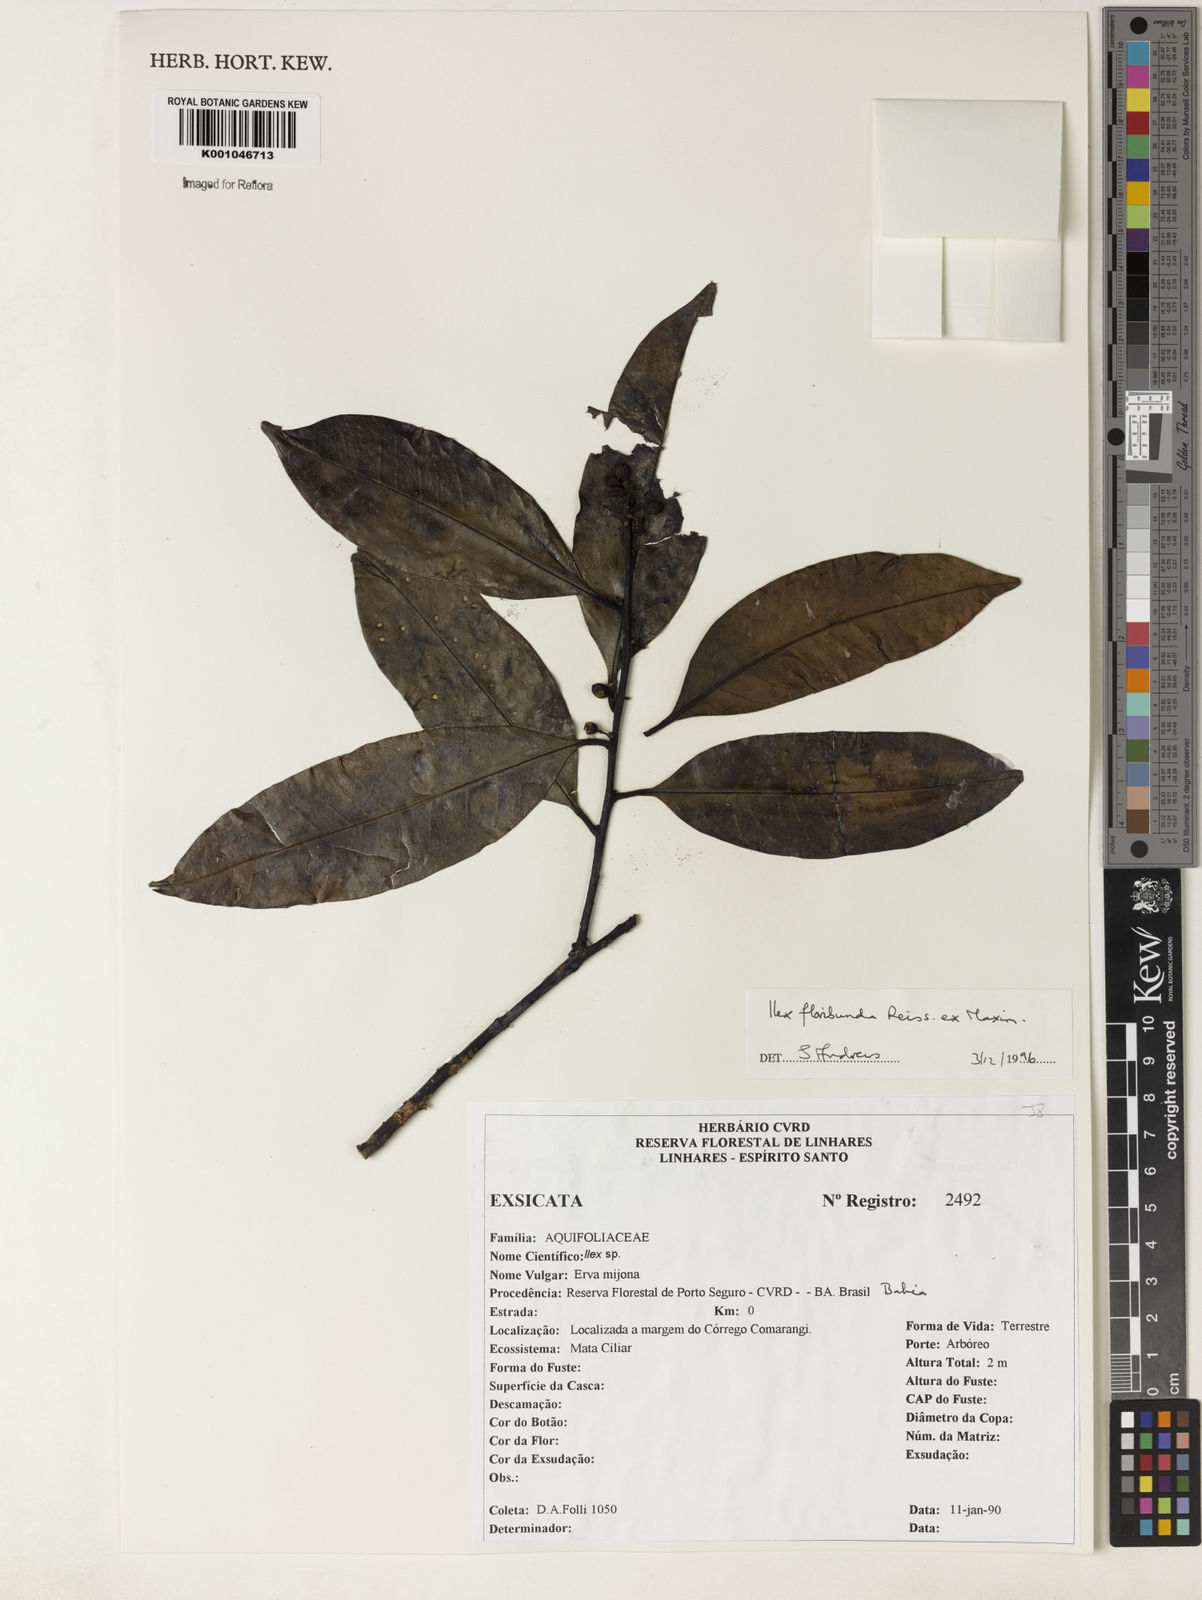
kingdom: Plantae
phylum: Tracheophyta
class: Magnoliopsida
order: Aquifoliales
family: Aquifoliaceae
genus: Ilex
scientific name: Ilex floribunda
